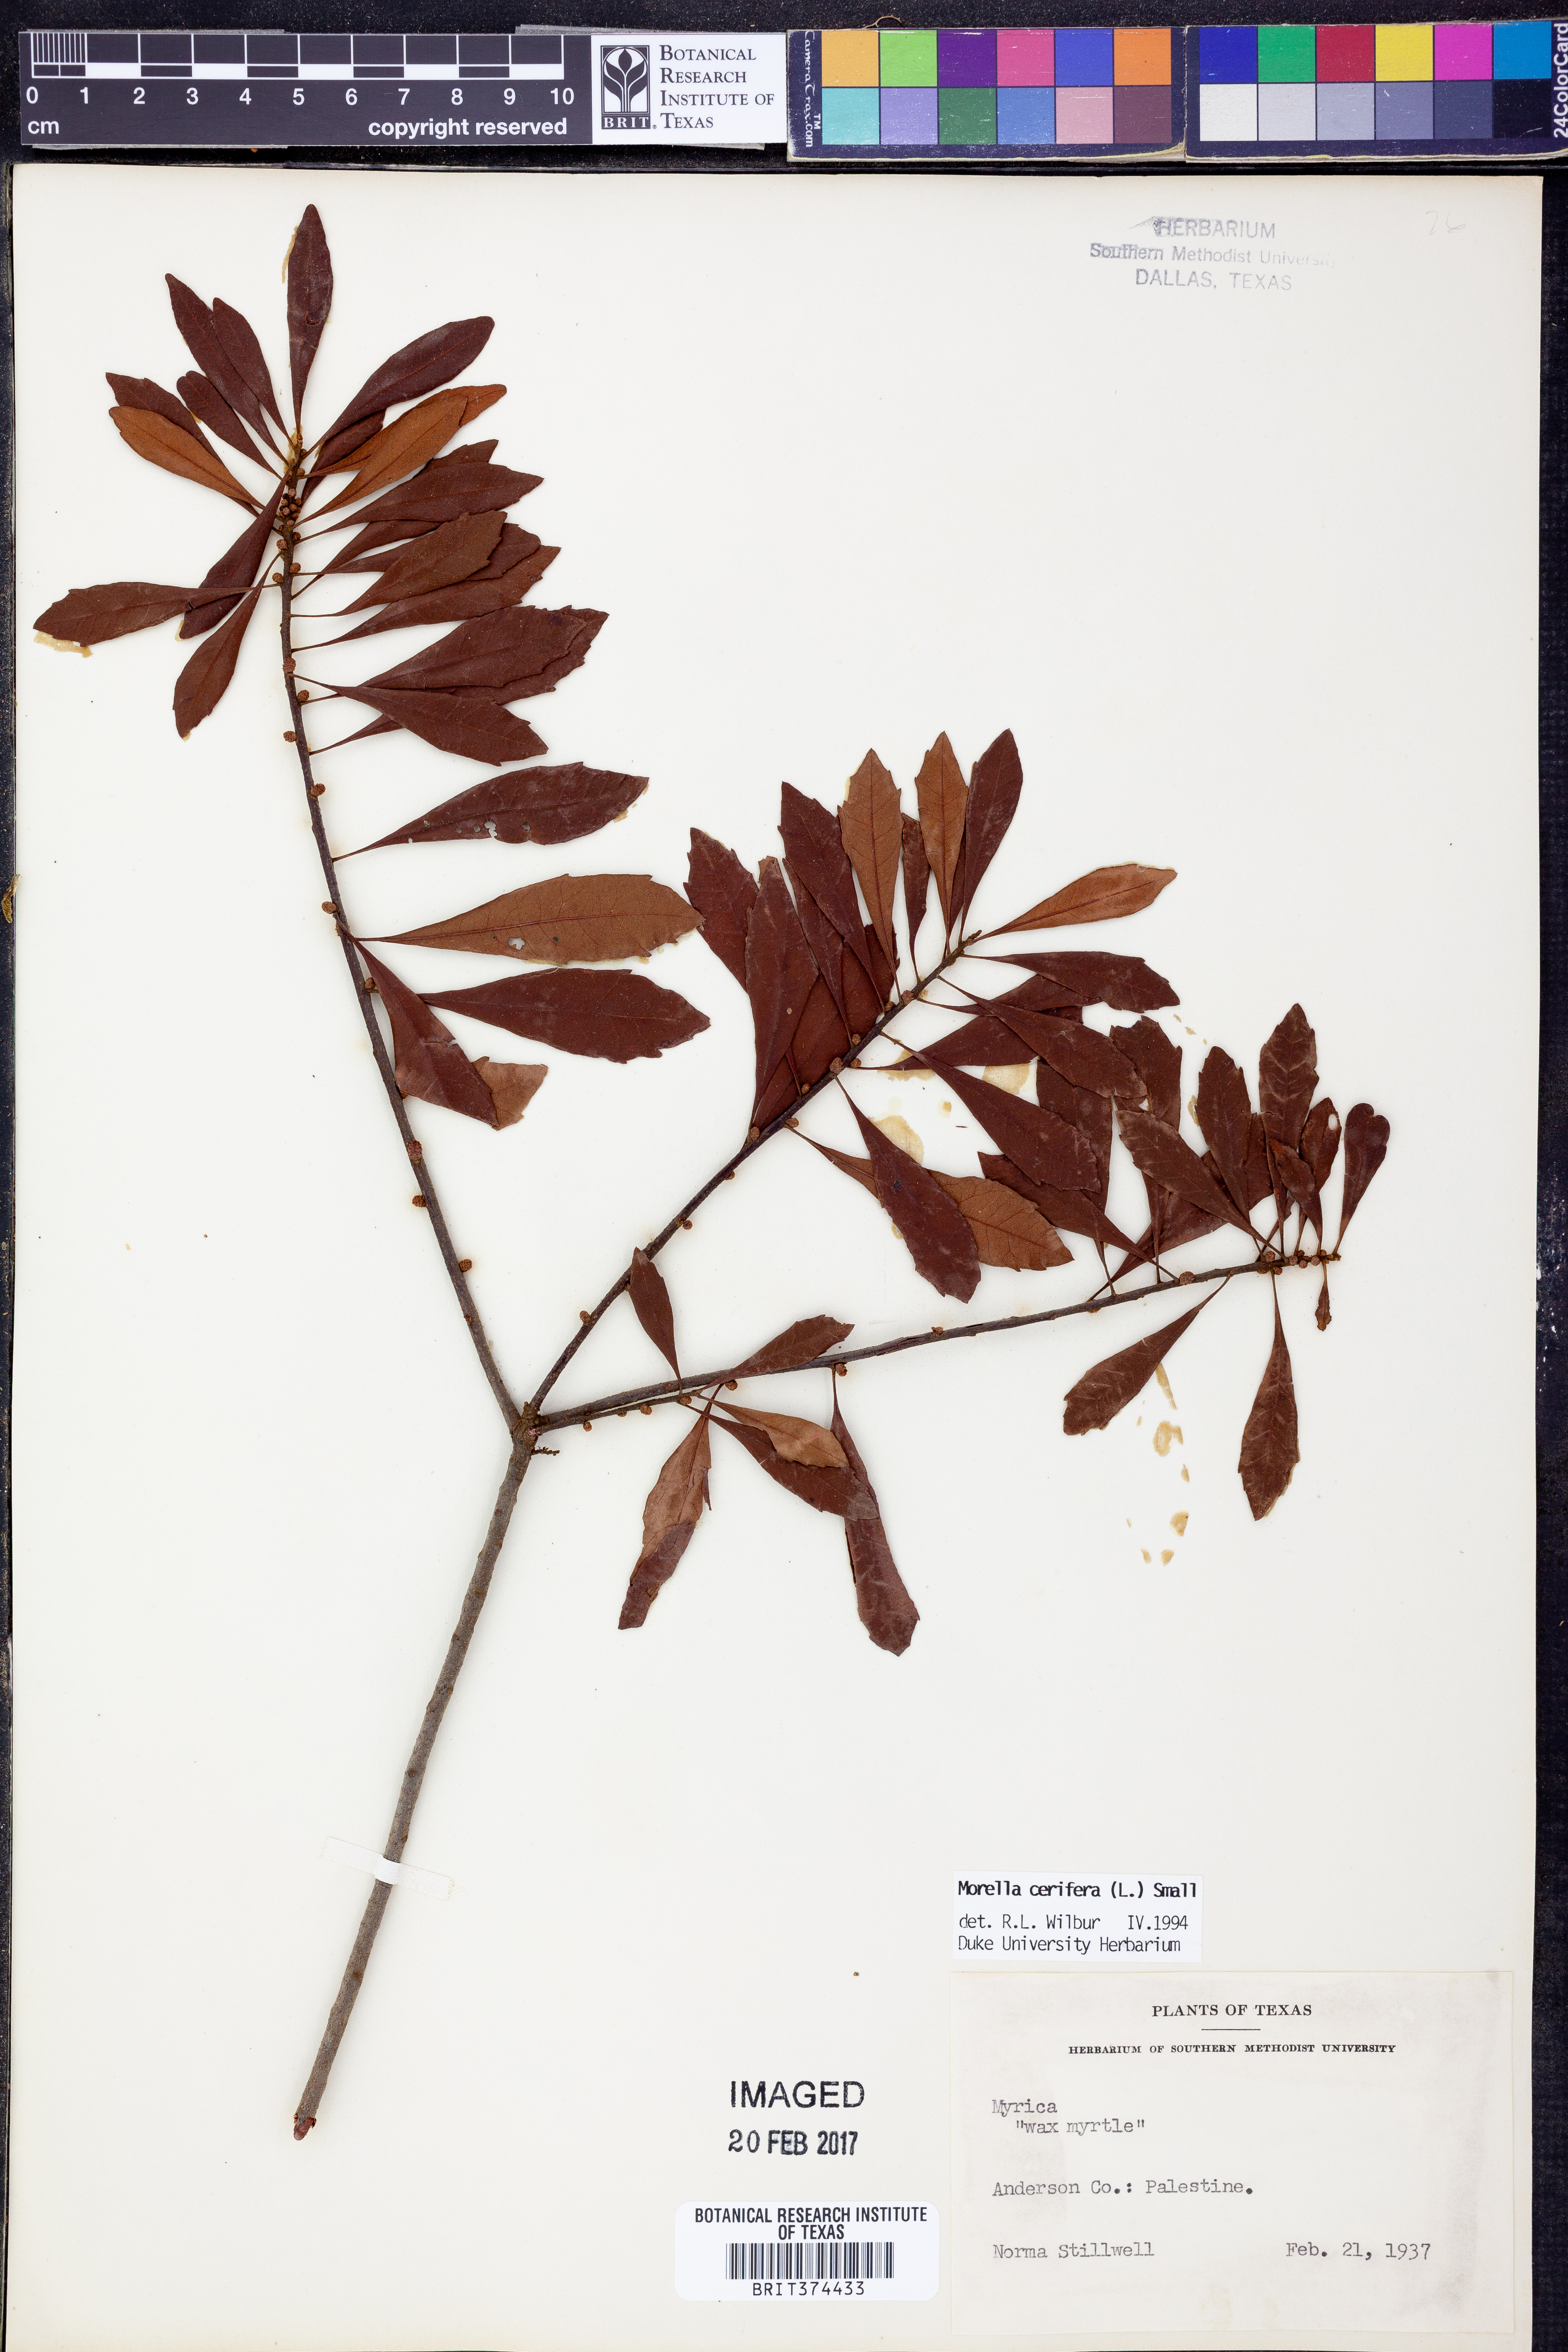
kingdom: Plantae
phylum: Tracheophyta
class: Magnoliopsida
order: Fagales
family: Myricaceae
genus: Morella
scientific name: Morella cerifera
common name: Wax myrtle
